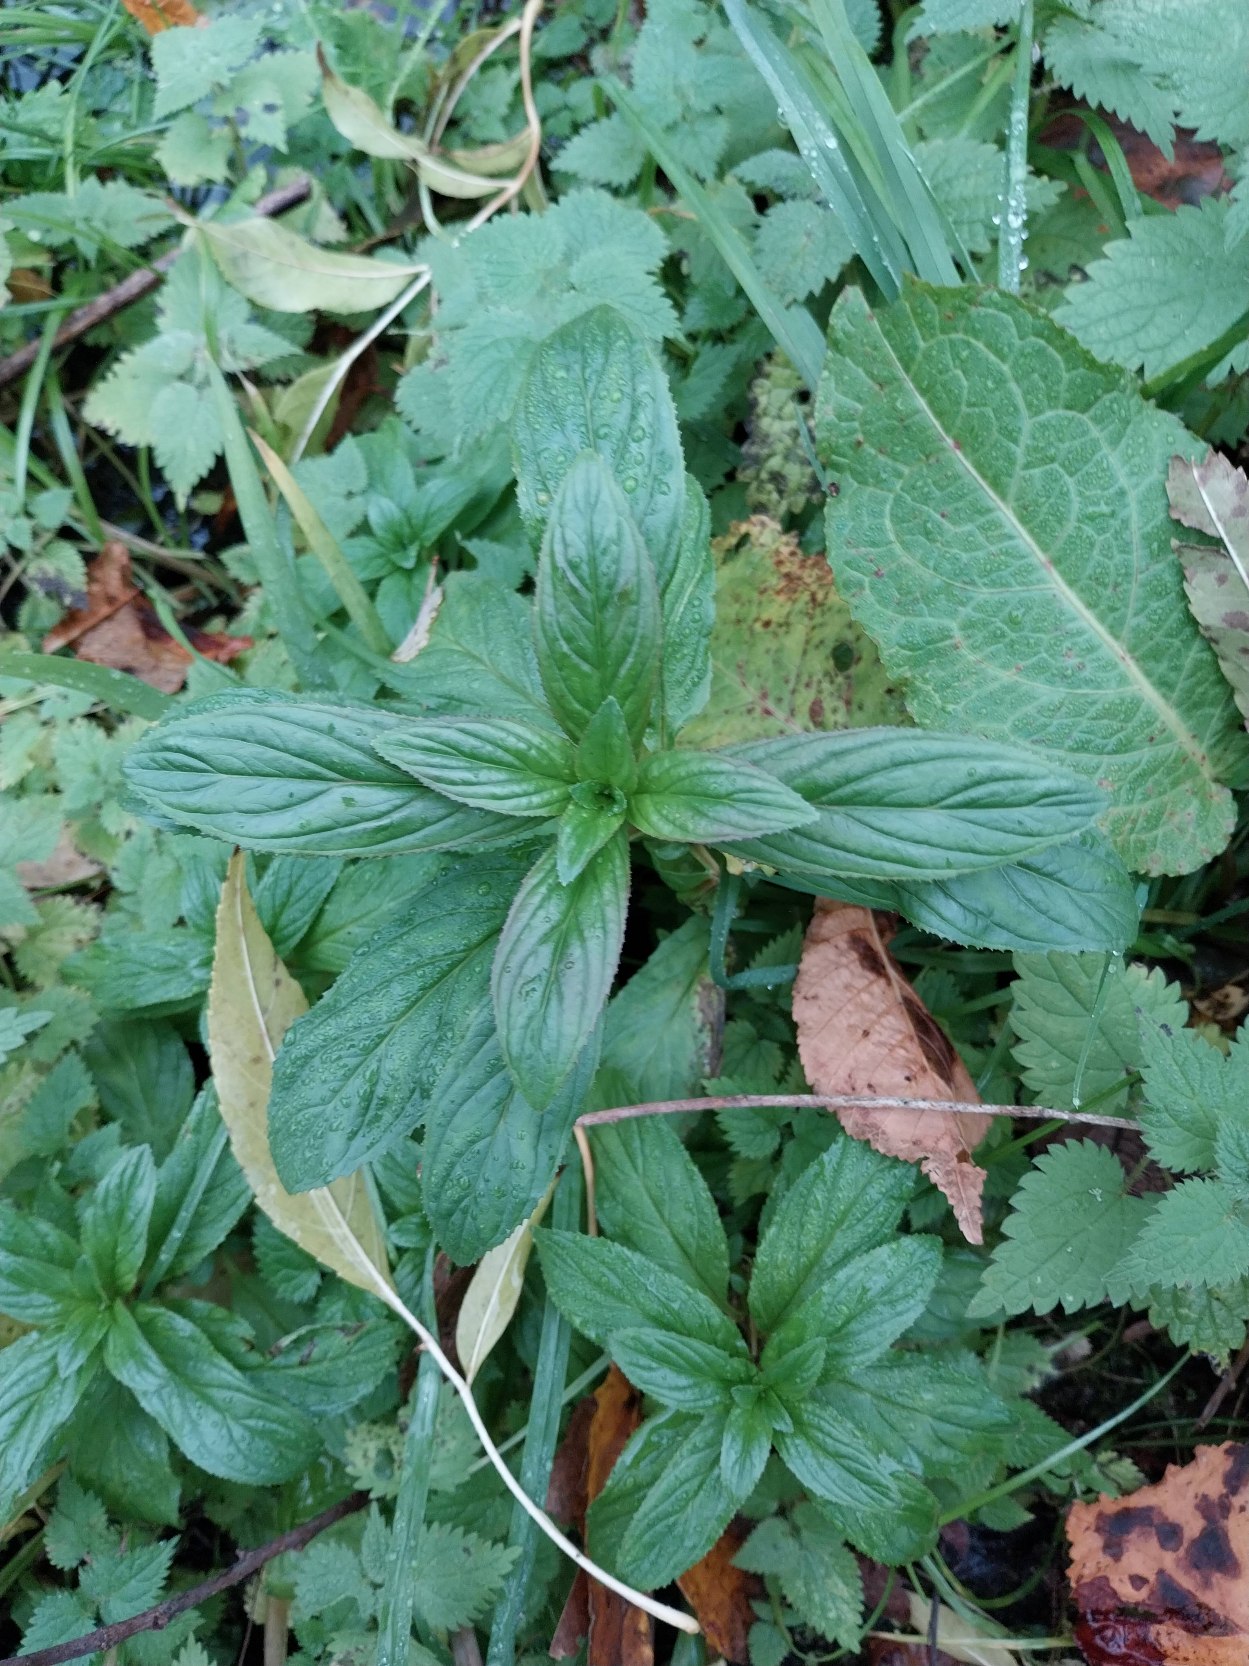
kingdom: Plantae
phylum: Tracheophyta
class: Magnoliopsida
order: Myrtales
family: Onagraceae
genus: Epilobium
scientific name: Epilobium hirsutum
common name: Lådden dueurt
